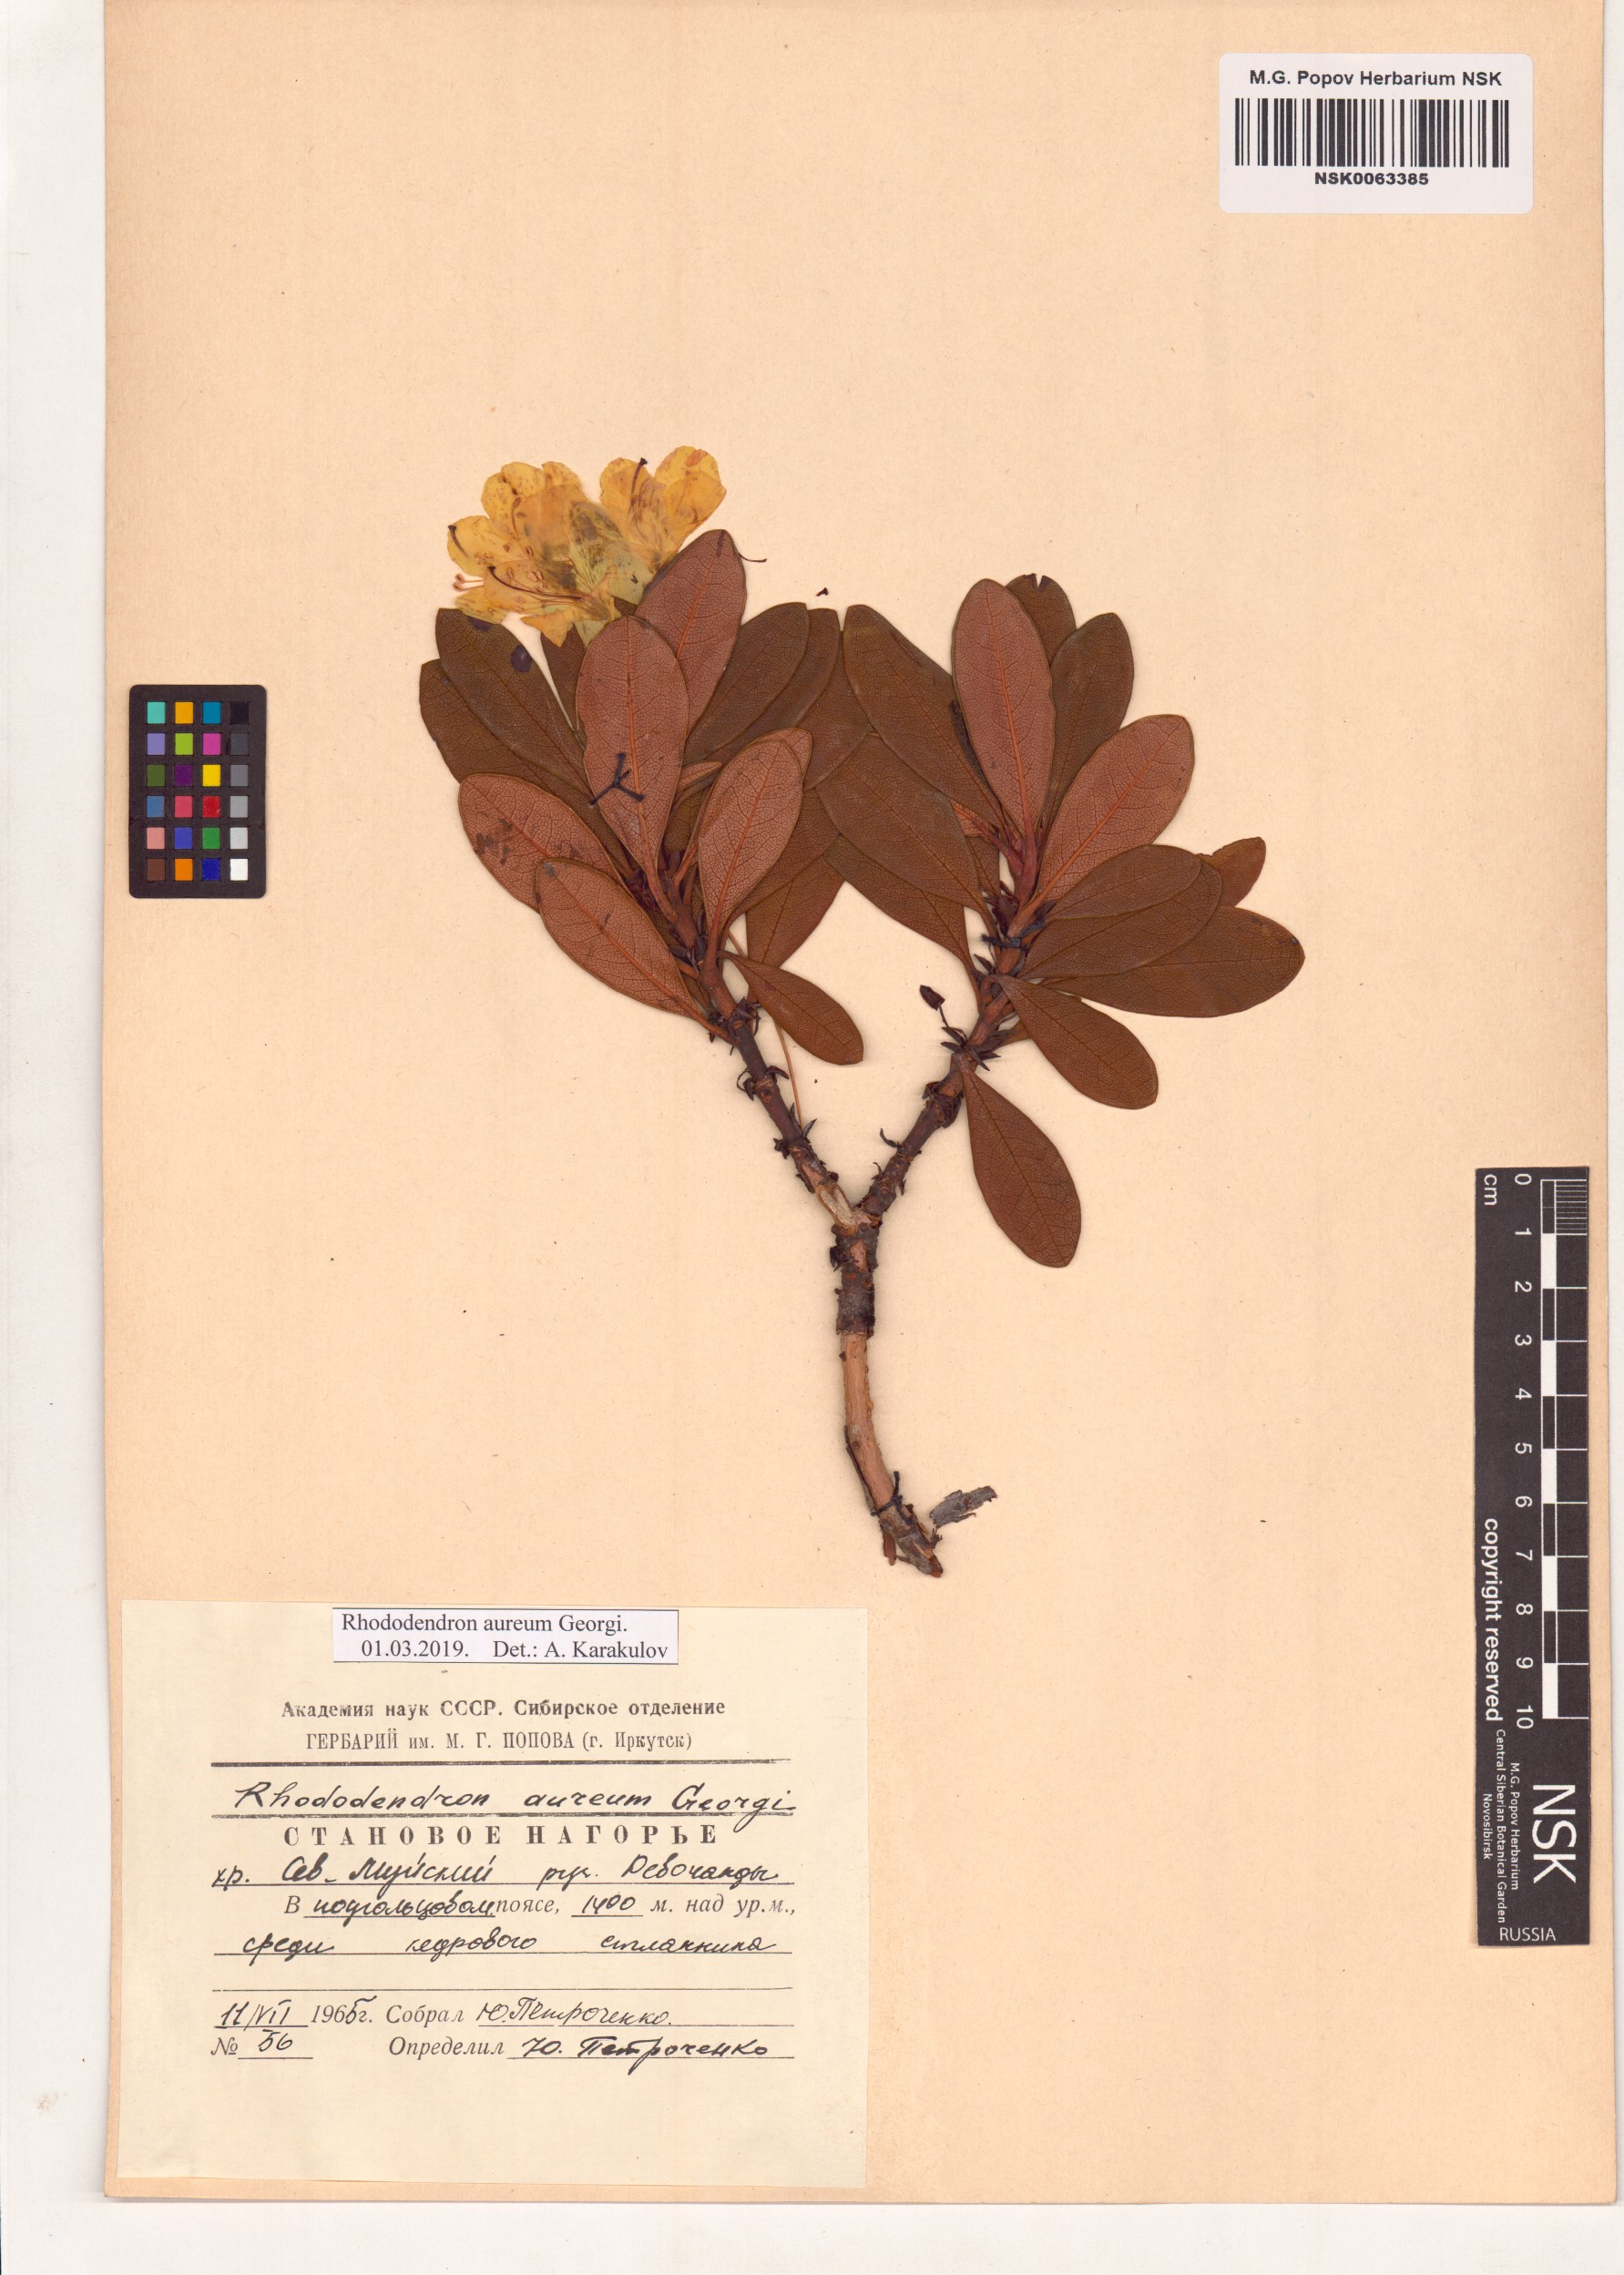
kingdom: Plantae
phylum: Tracheophyta
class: Magnoliopsida
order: Ericales
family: Ericaceae
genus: Rhododendron
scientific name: Rhododendron aureum
